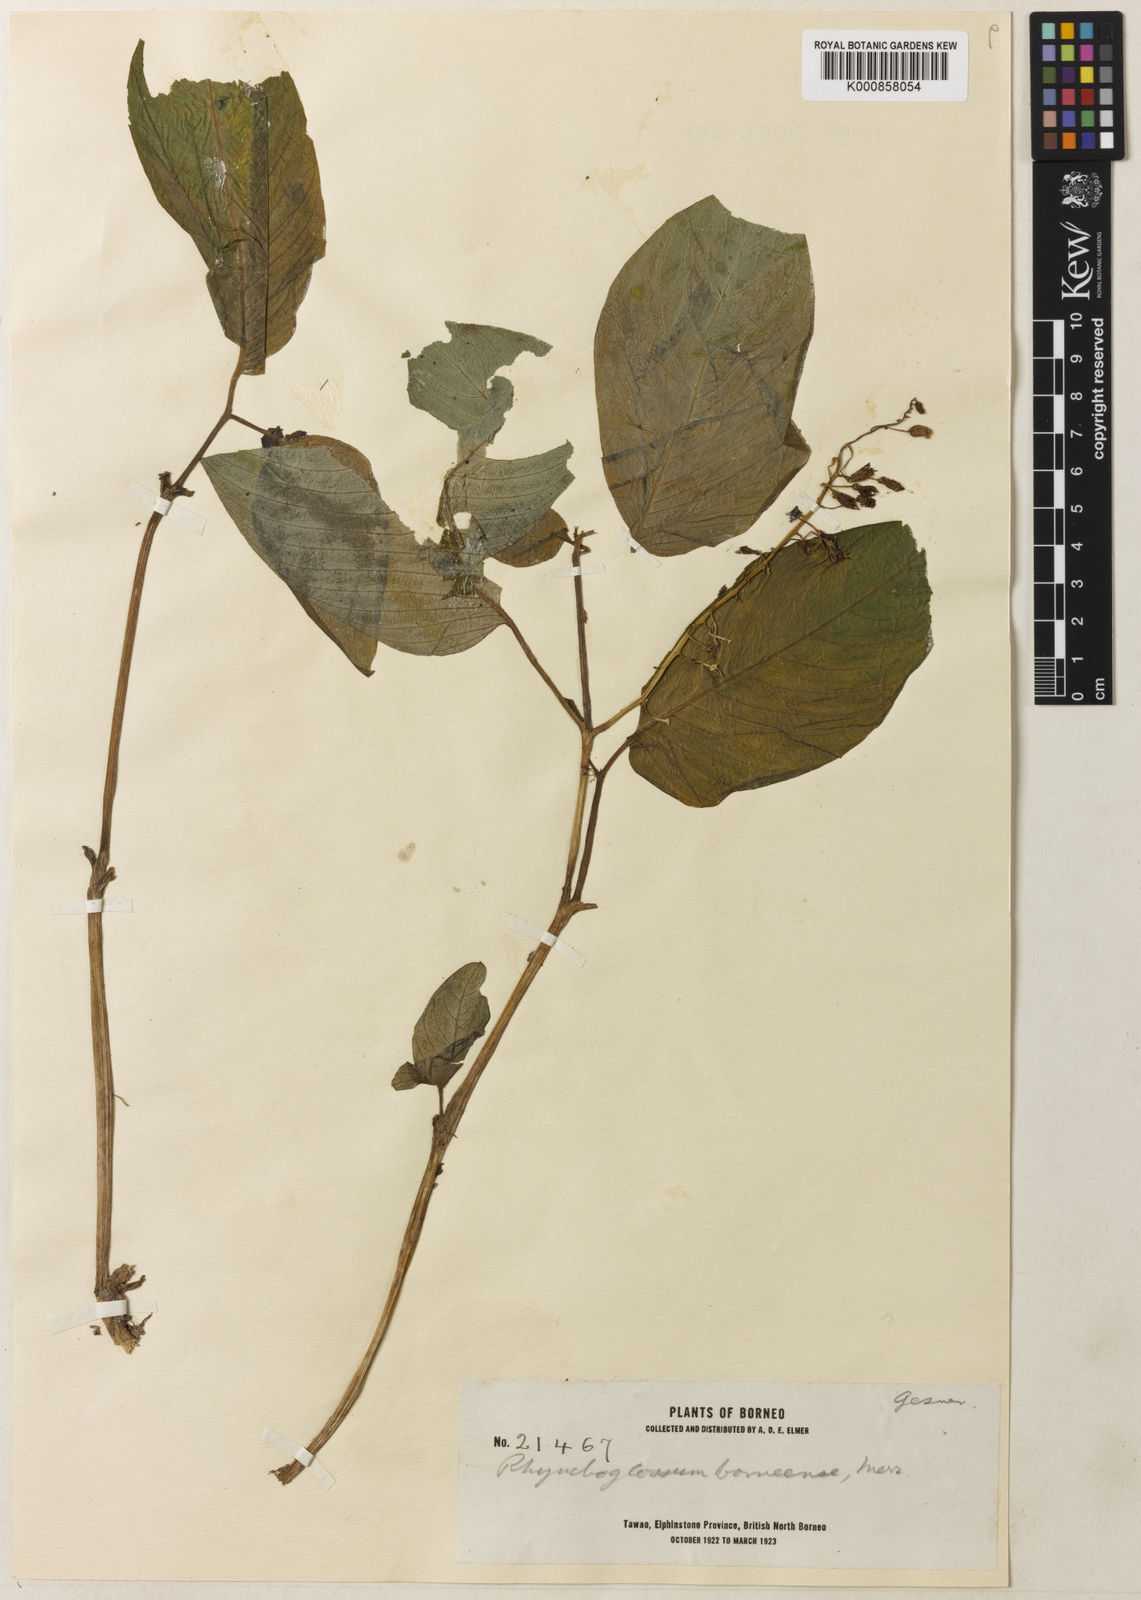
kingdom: Plantae
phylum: Tracheophyta
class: Magnoliopsida
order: Lamiales
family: Gesneriaceae
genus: Rhynchoglossum
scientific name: Rhynchoglossum borneense
